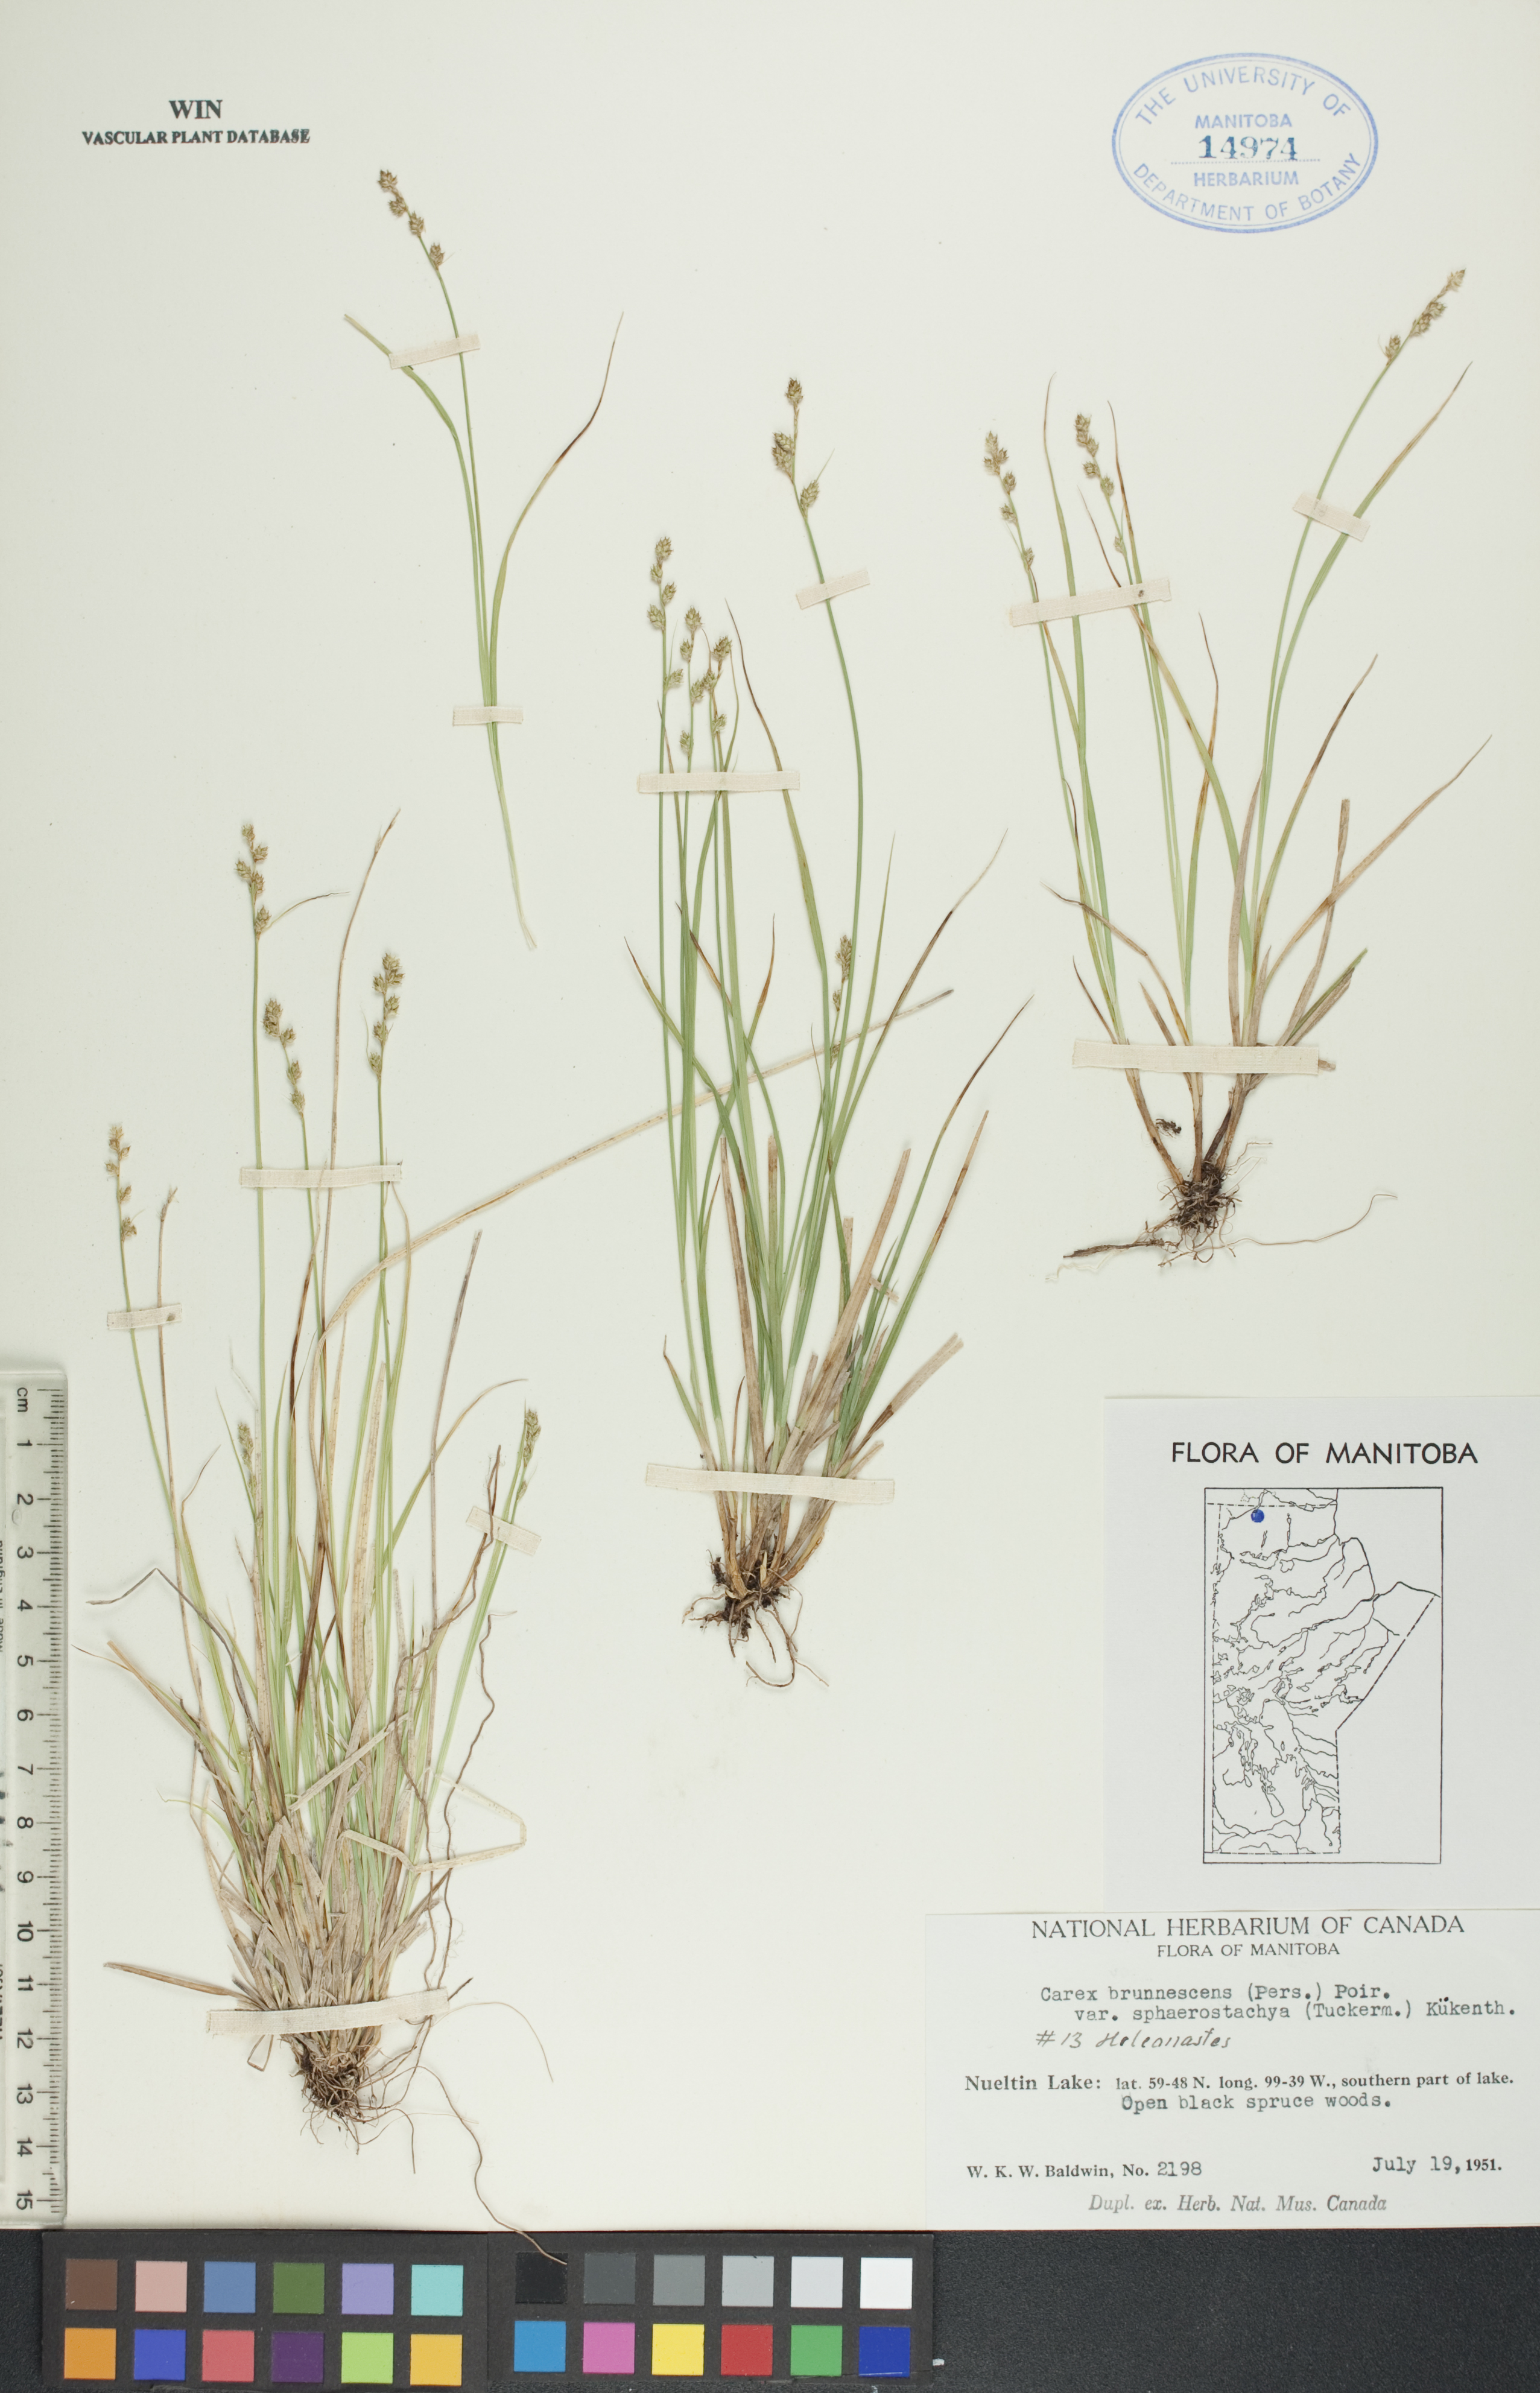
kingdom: Plantae
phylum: Tracheophyta
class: Liliopsida
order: Poales
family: Cyperaceae
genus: Carex
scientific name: Carex brunnescens
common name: Brown sedge
